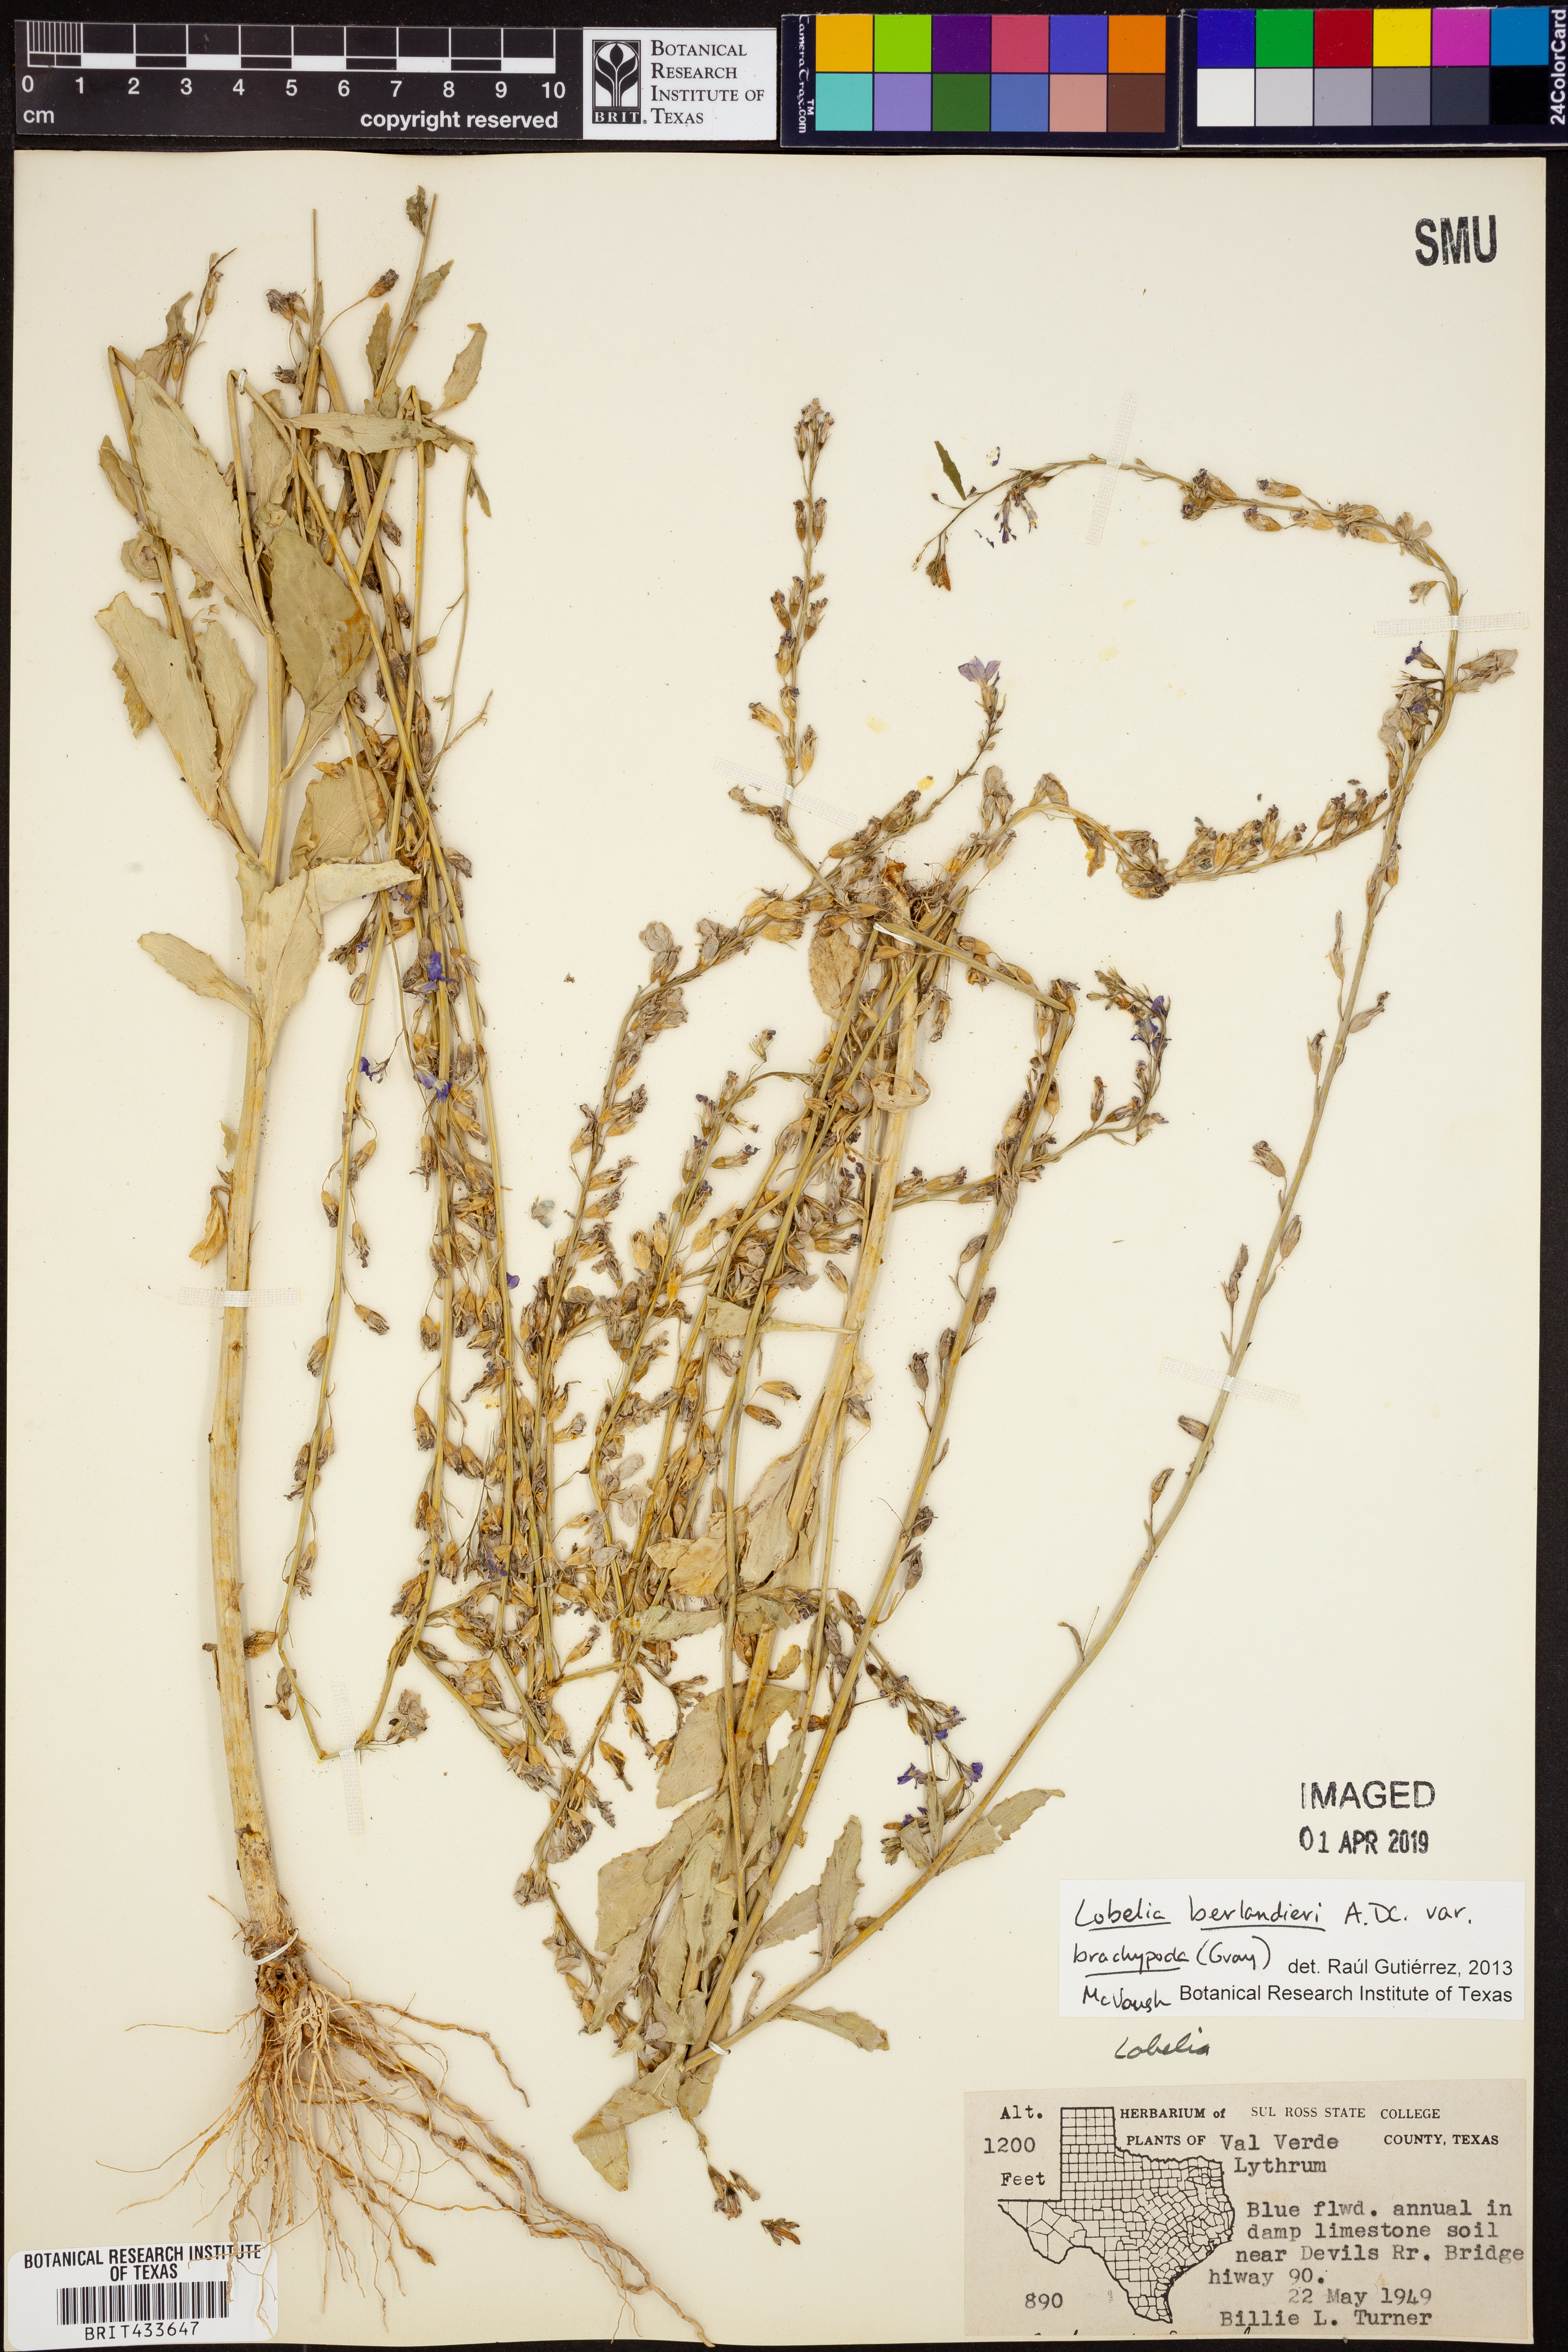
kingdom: Plantae
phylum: Tracheophyta
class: Magnoliopsida
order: Asterales
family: Campanulaceae
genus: Lobelia
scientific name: Lobelia berlandieri
